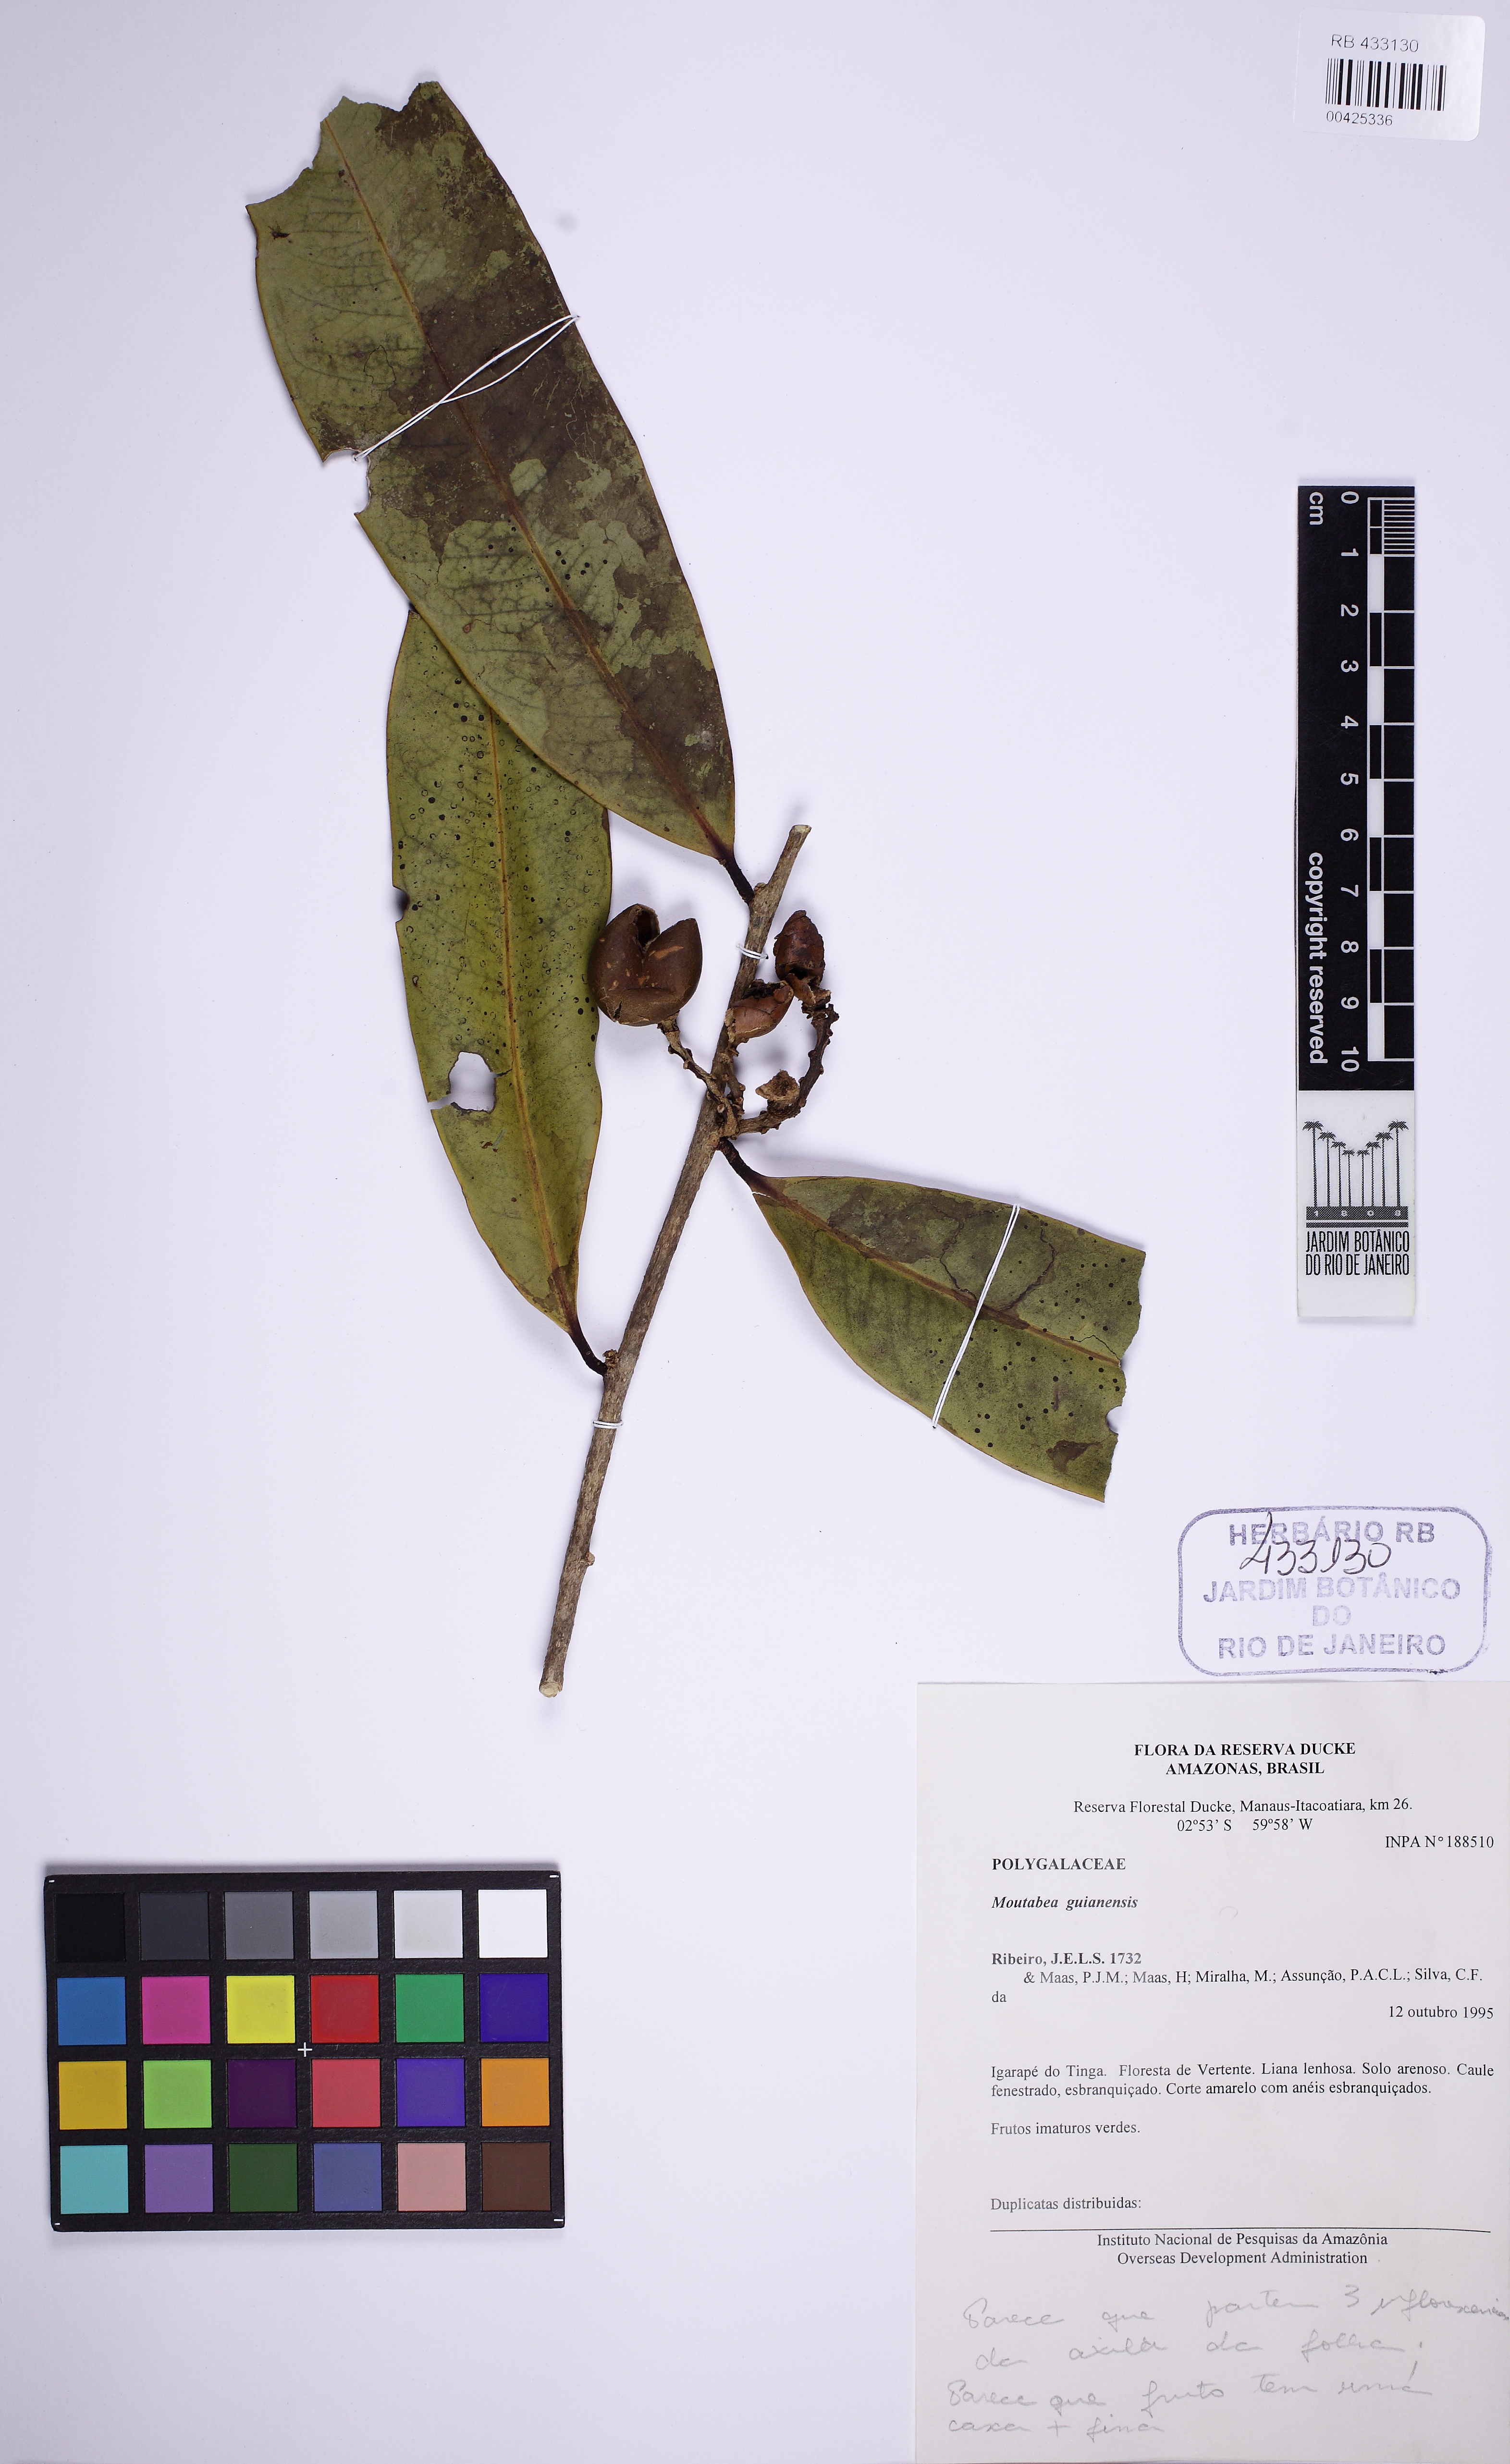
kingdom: Plantae
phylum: Tracheophyta
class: Magnoliopsida
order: Fabales
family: Polygalaceae
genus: Moutabea
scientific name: Moutabea guianensis
